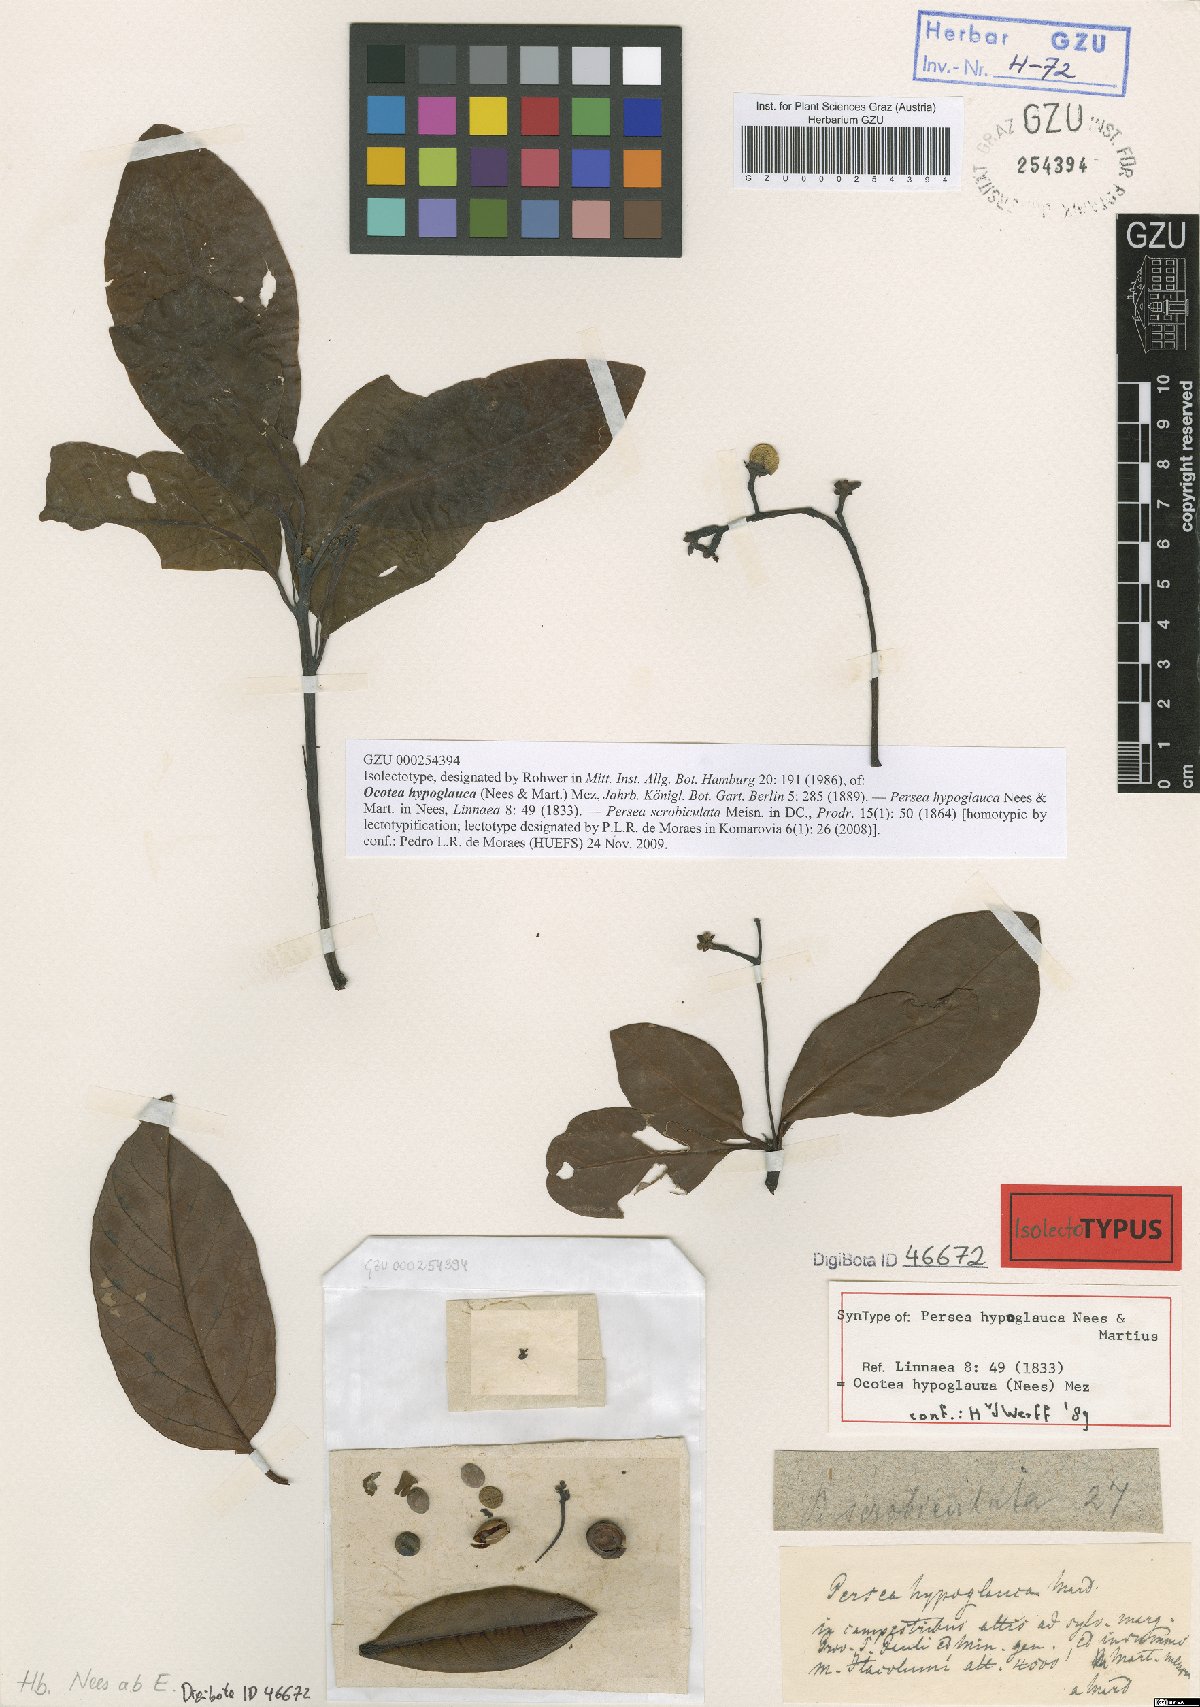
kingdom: Plantae
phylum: Tracheophyta
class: Magnoliopsida
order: Laurales
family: Lauraceae
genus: Persea
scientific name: Persea venosa
